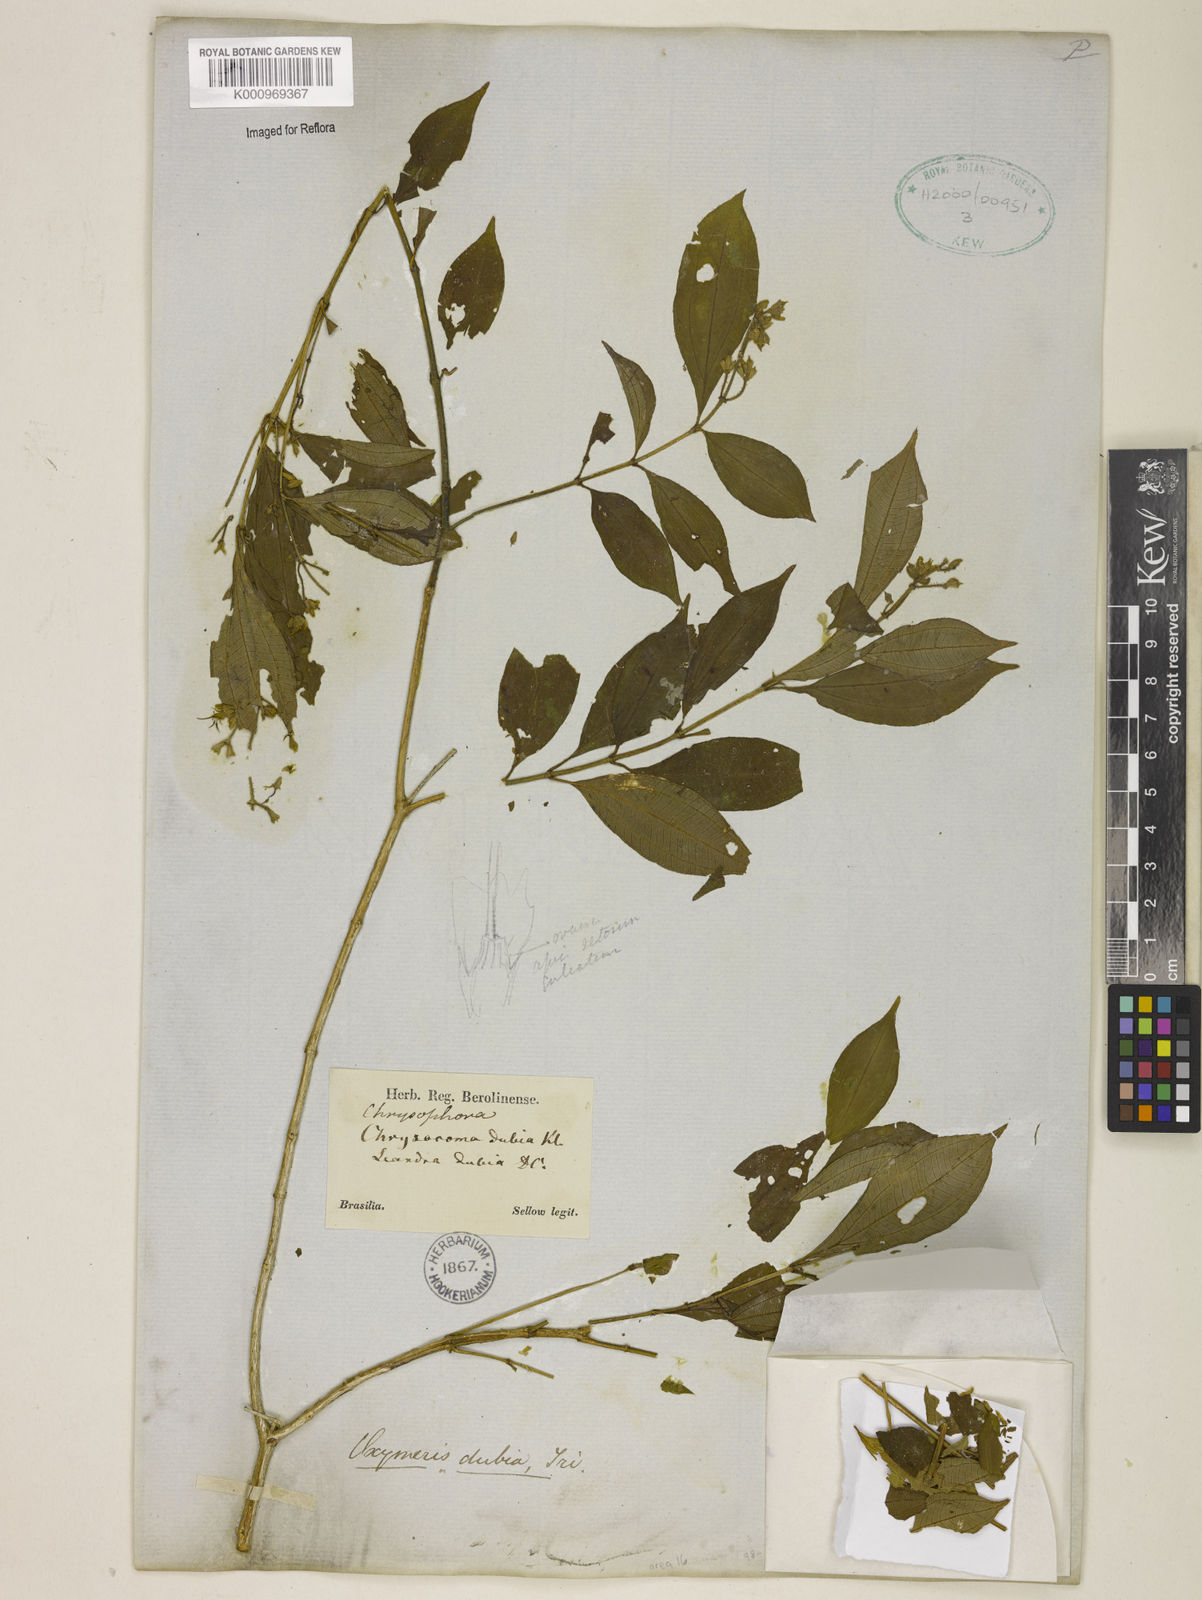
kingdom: Plantae
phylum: Tracheophyta
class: Magnoliopsida
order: Myrtales
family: Melastomataceae
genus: Miconia
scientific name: Miconia dubia
